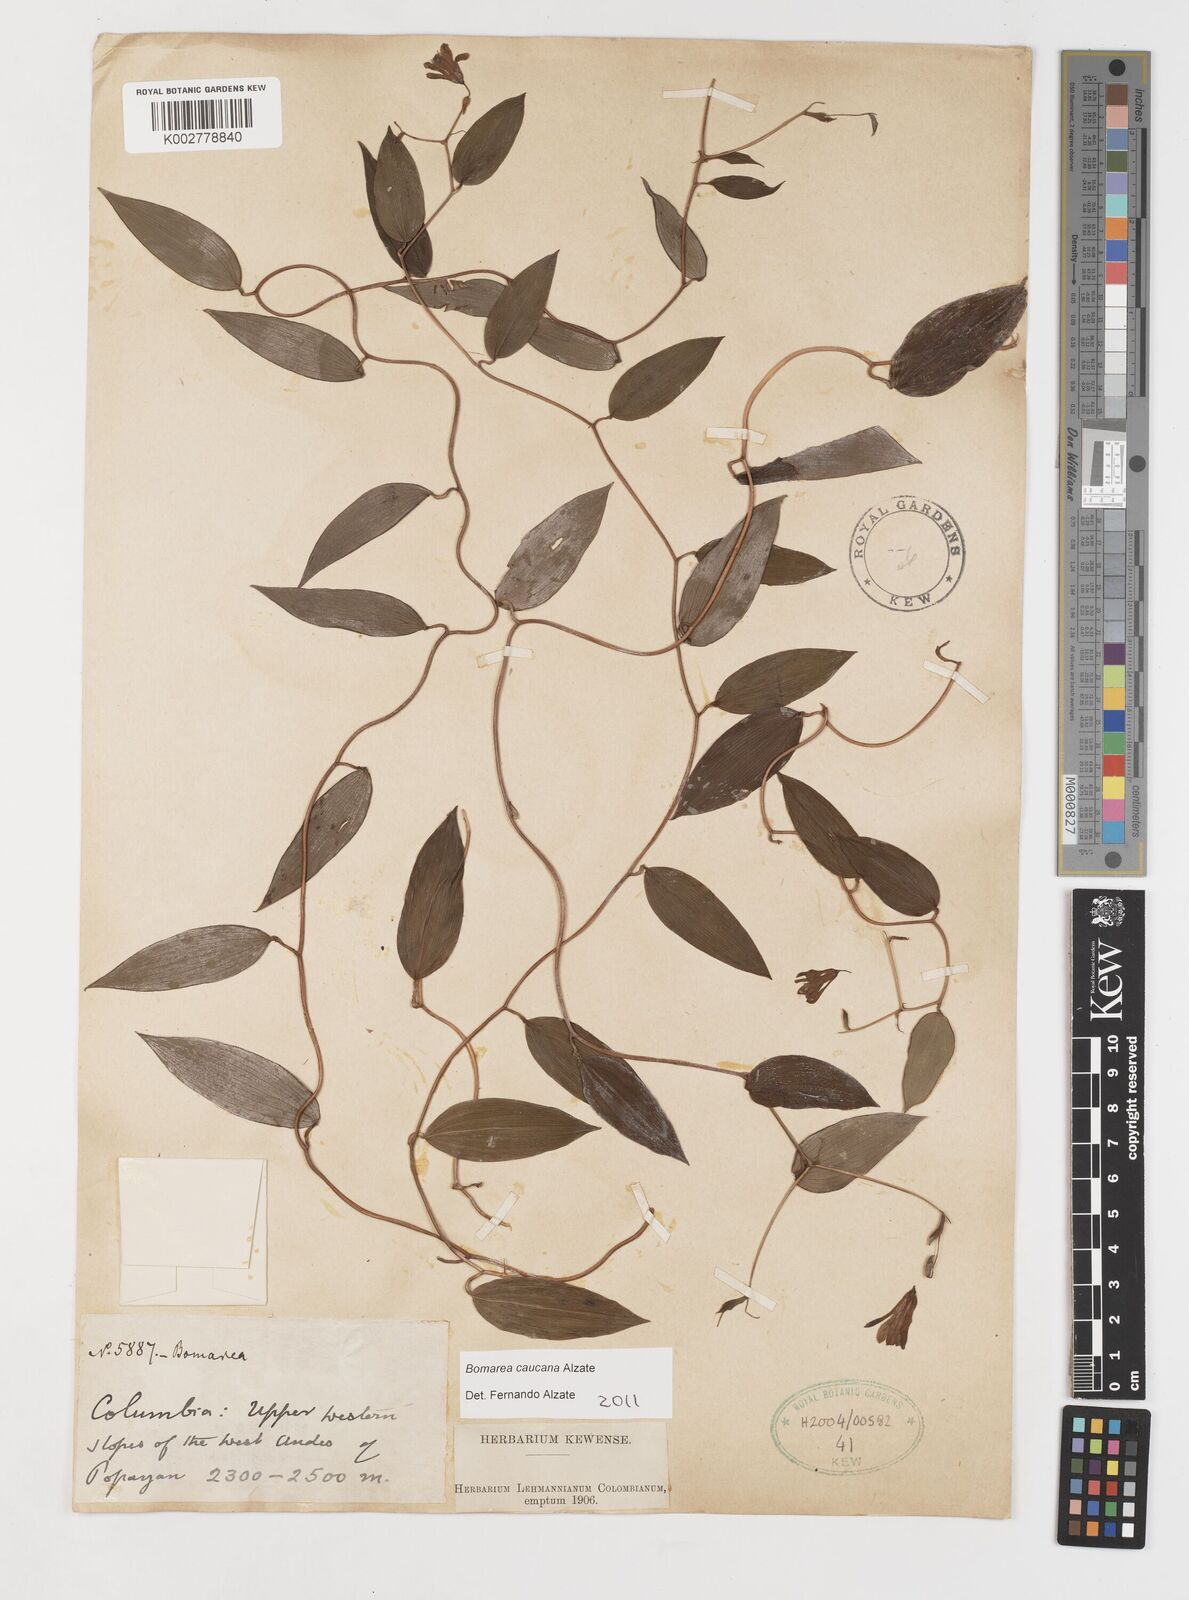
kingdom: Plantae
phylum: Tracheophyta
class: Liliopsida
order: Liliales
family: Alstroemeriaceae
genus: Bomarea
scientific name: Bomarea caucana
